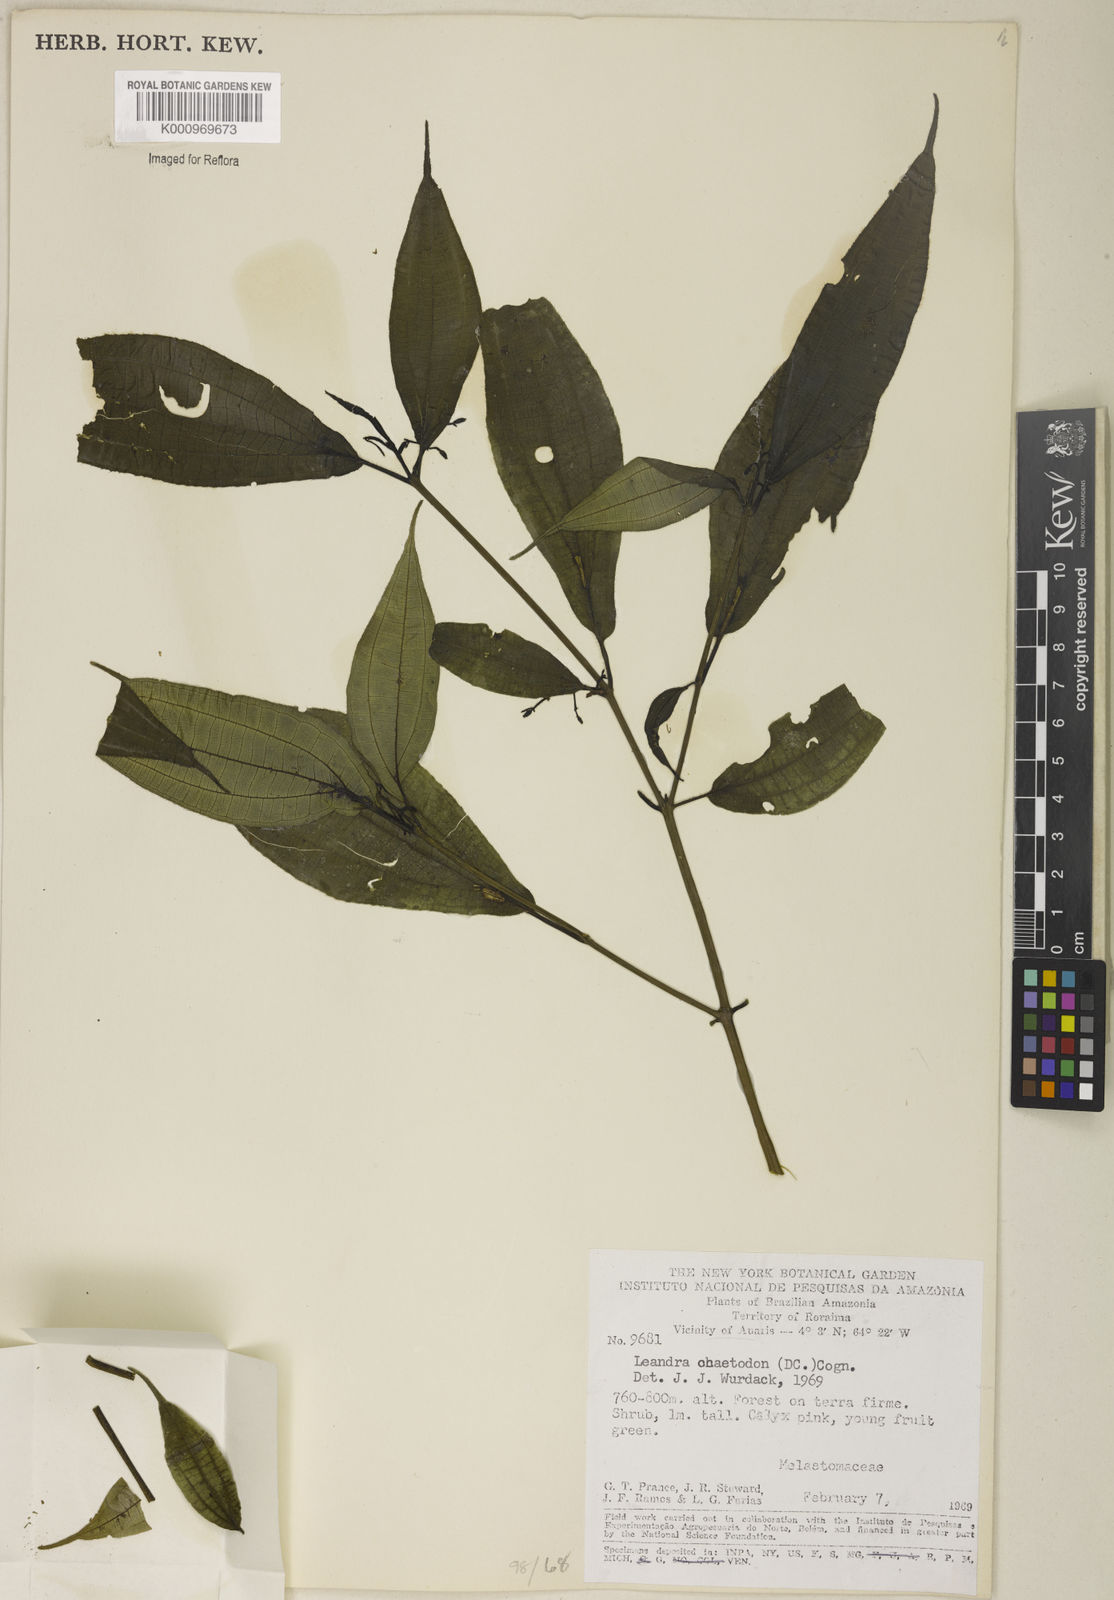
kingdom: Plantae
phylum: Tracheophyta
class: Magnoliopsida
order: Myrtales
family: Melastomataceae
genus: Miconia
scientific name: Miconia chaetodonta
